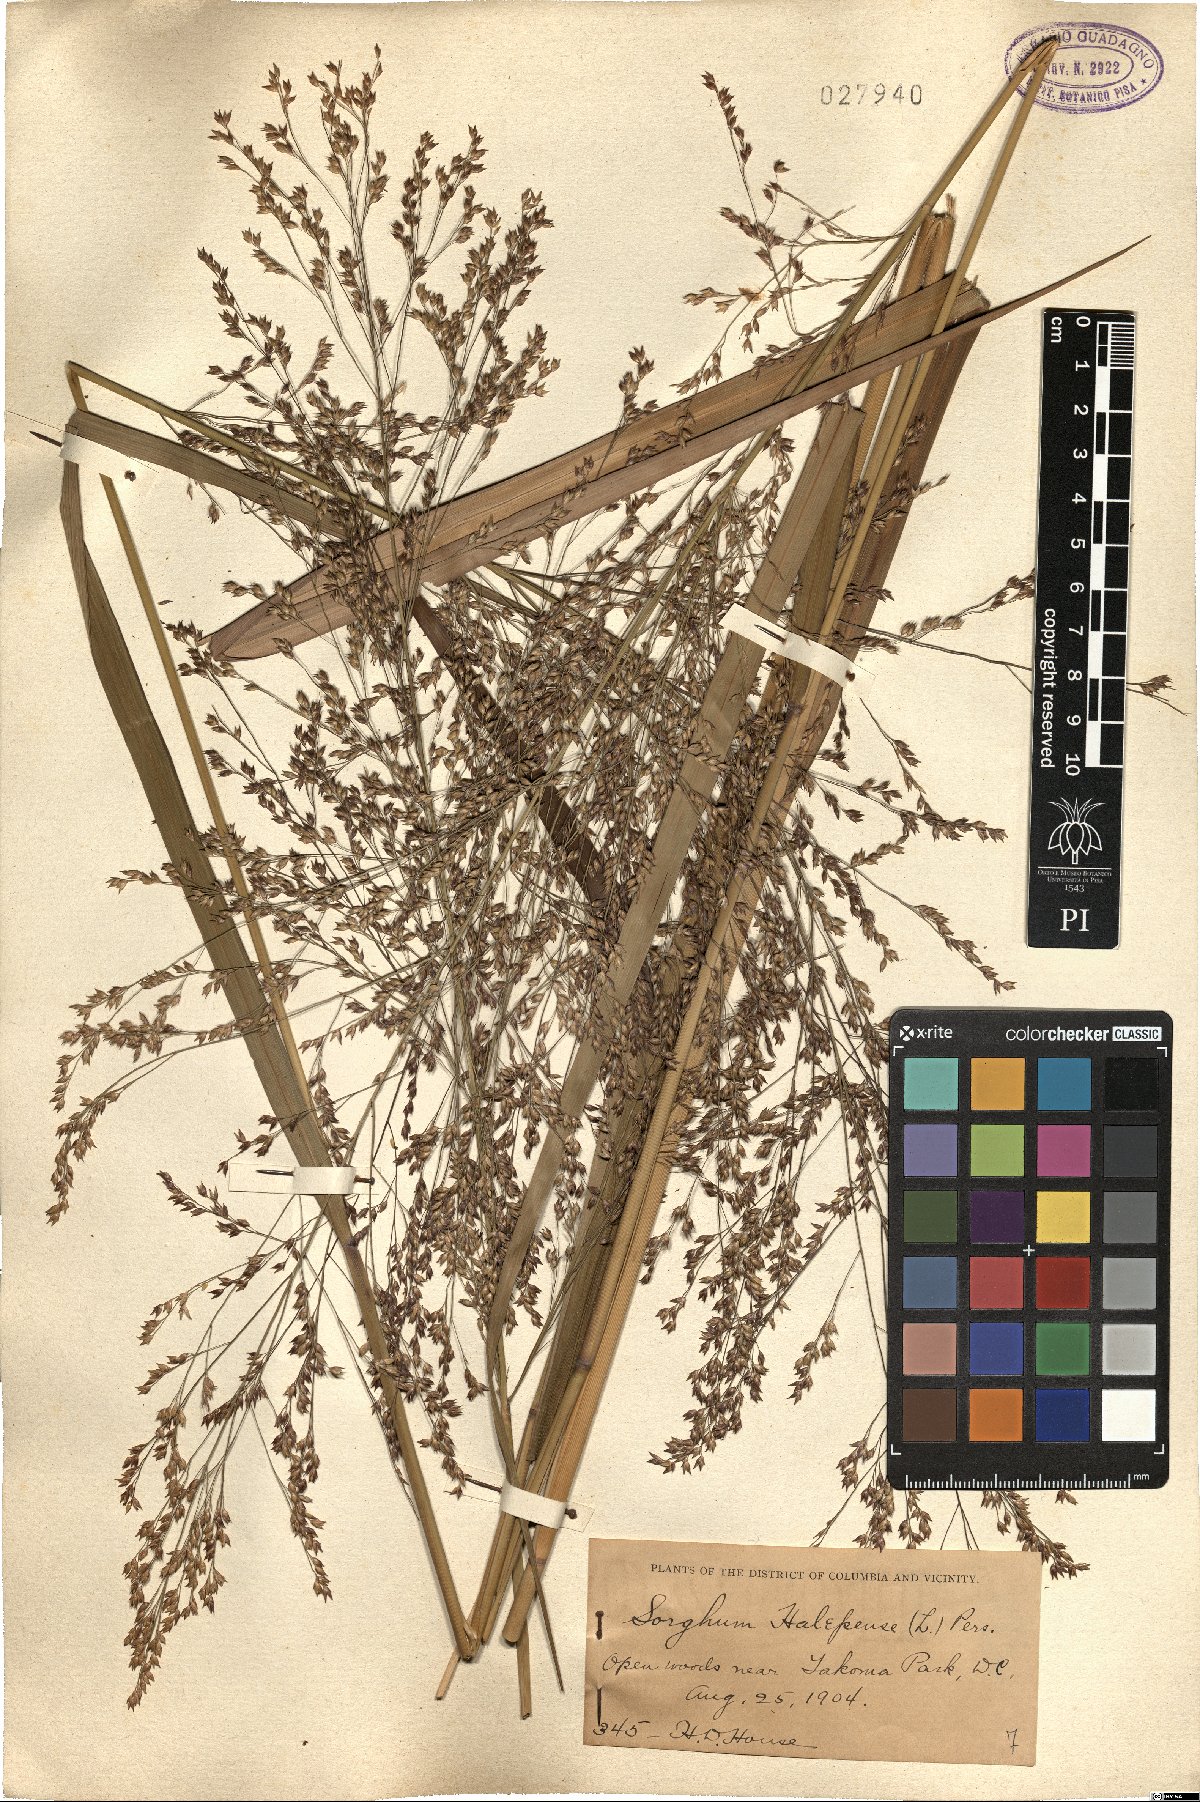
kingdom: Plantae
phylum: Tracheophyta
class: Liliopsida
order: Poales
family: Poaceae
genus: Sorghum
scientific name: Sorghum halepense
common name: Johnson-grass
